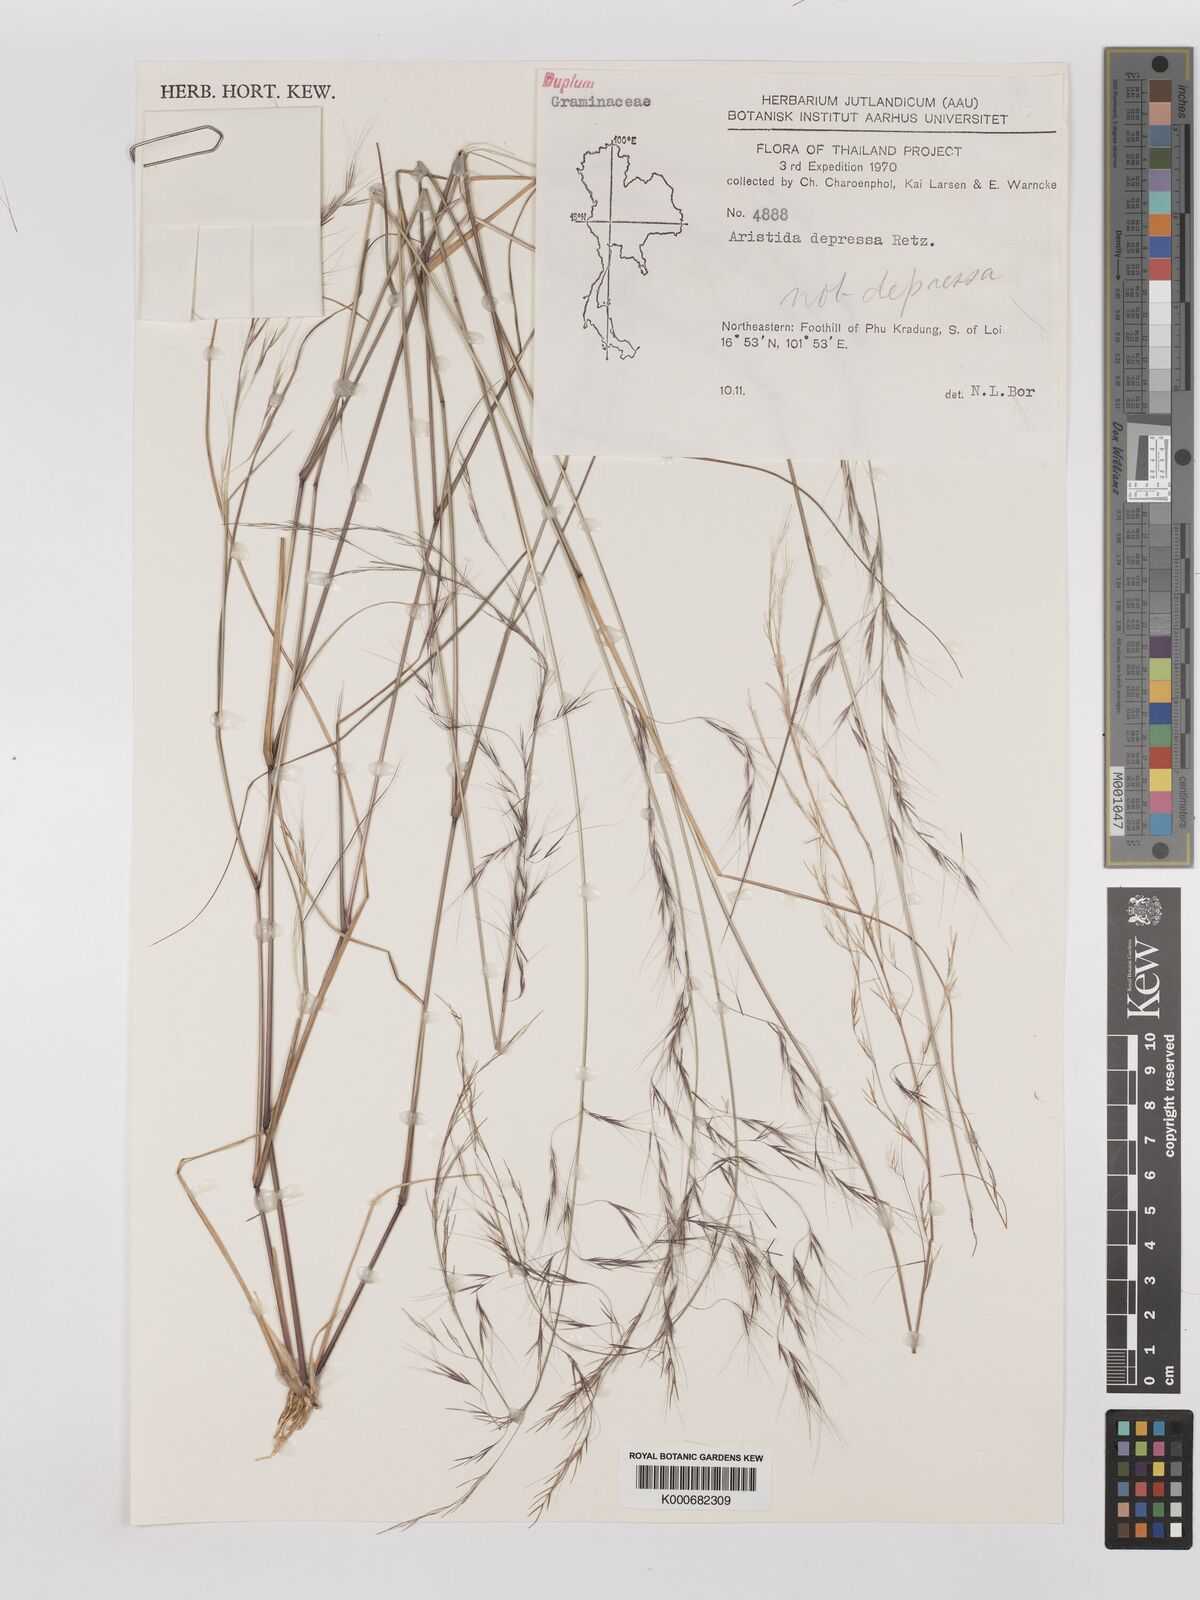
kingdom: Plantae
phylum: Tracheophyta
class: Liliopsida
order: Poales
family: Poaceae
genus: Aristida
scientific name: Aristida adscensionis
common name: Sixweeks threeawn
